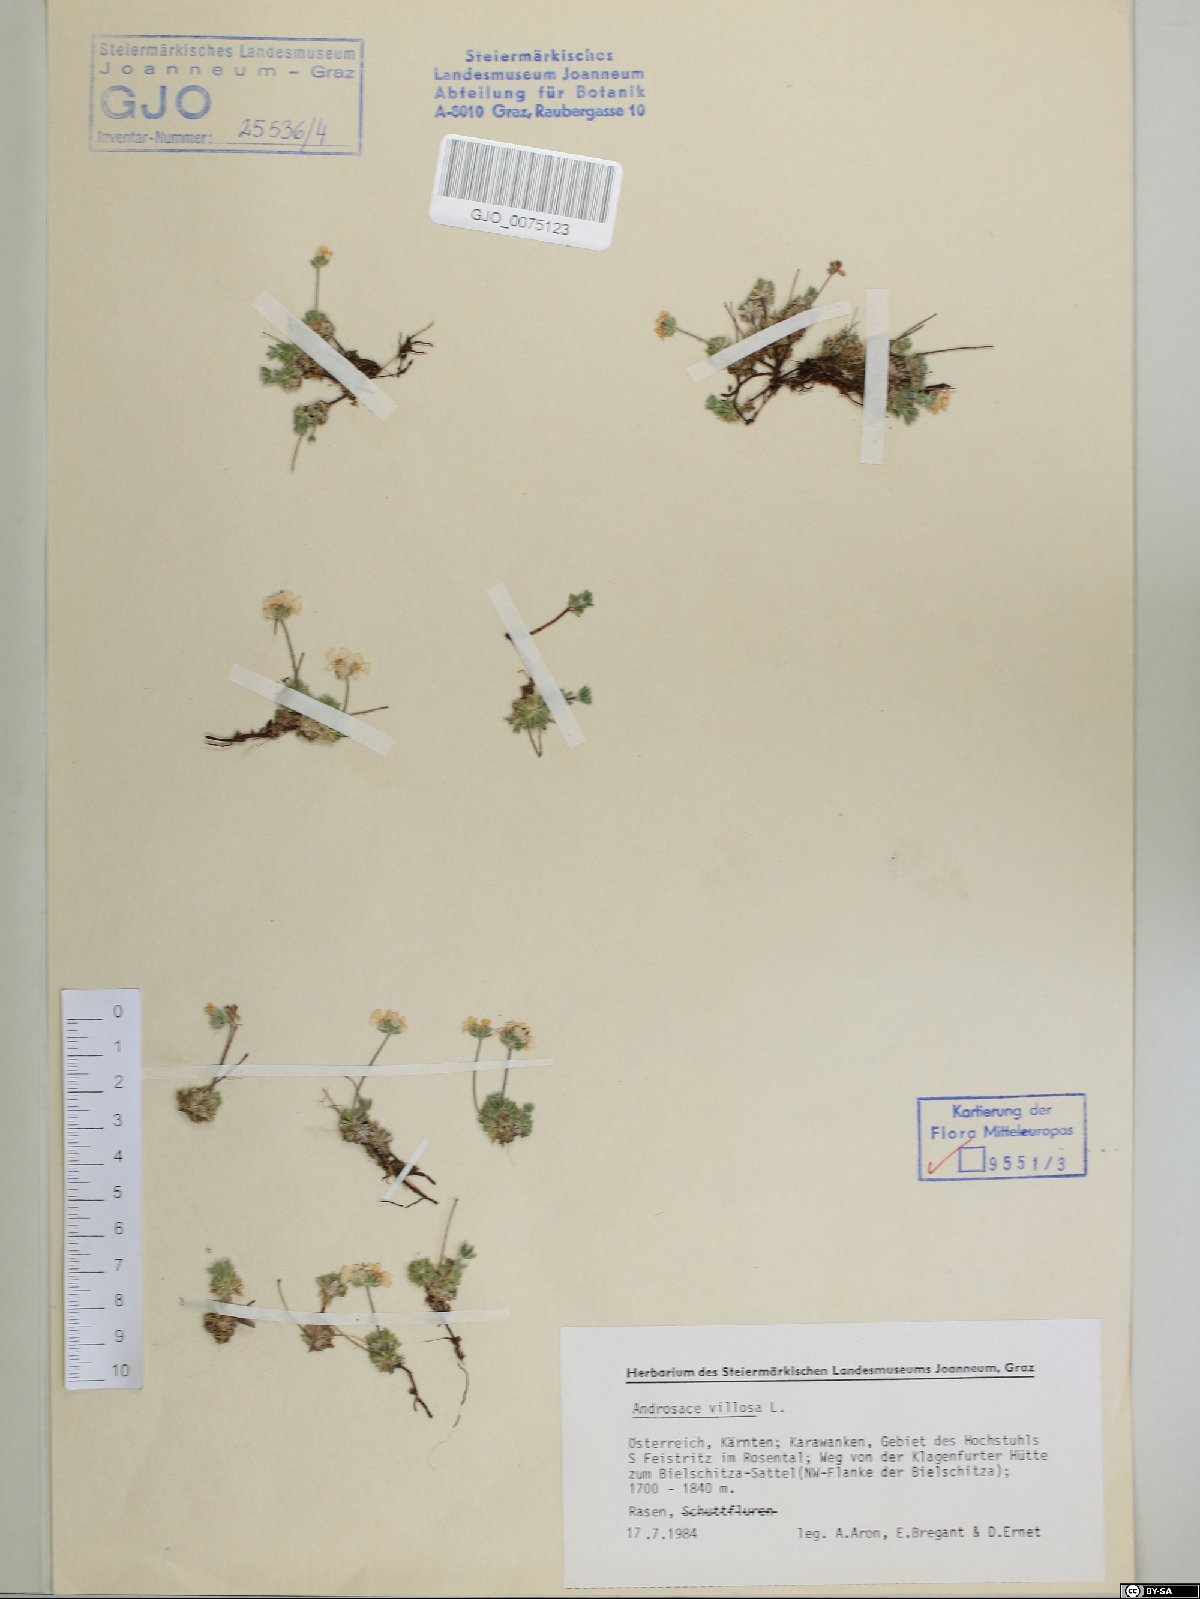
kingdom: Plantae
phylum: Tracheophyta
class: Magnoliopsida
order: Ericales
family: Primulaceae
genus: Androsace
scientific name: Androsace villosa
